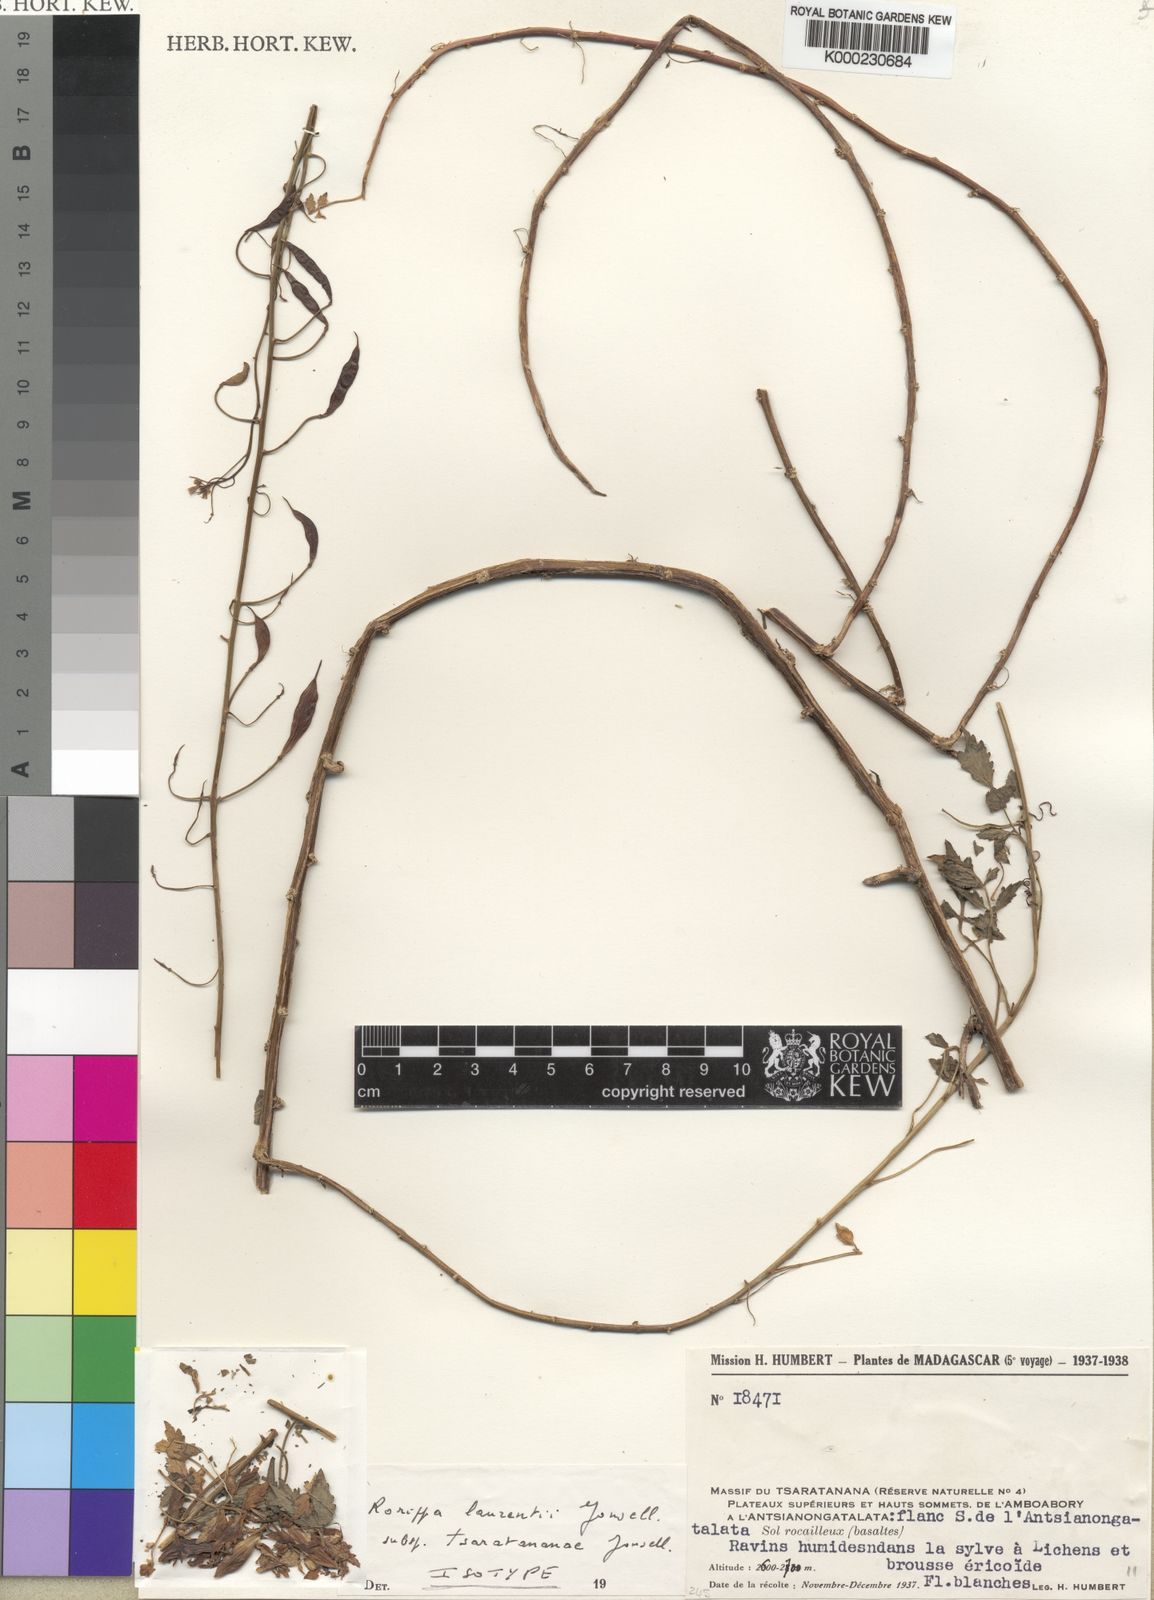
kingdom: Plantae
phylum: Tracheophyta
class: Magnoliopsida
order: Brassicales
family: Brassicaceae
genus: Bengt-jonsellia
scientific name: Bengt-jonsellia laurentii
